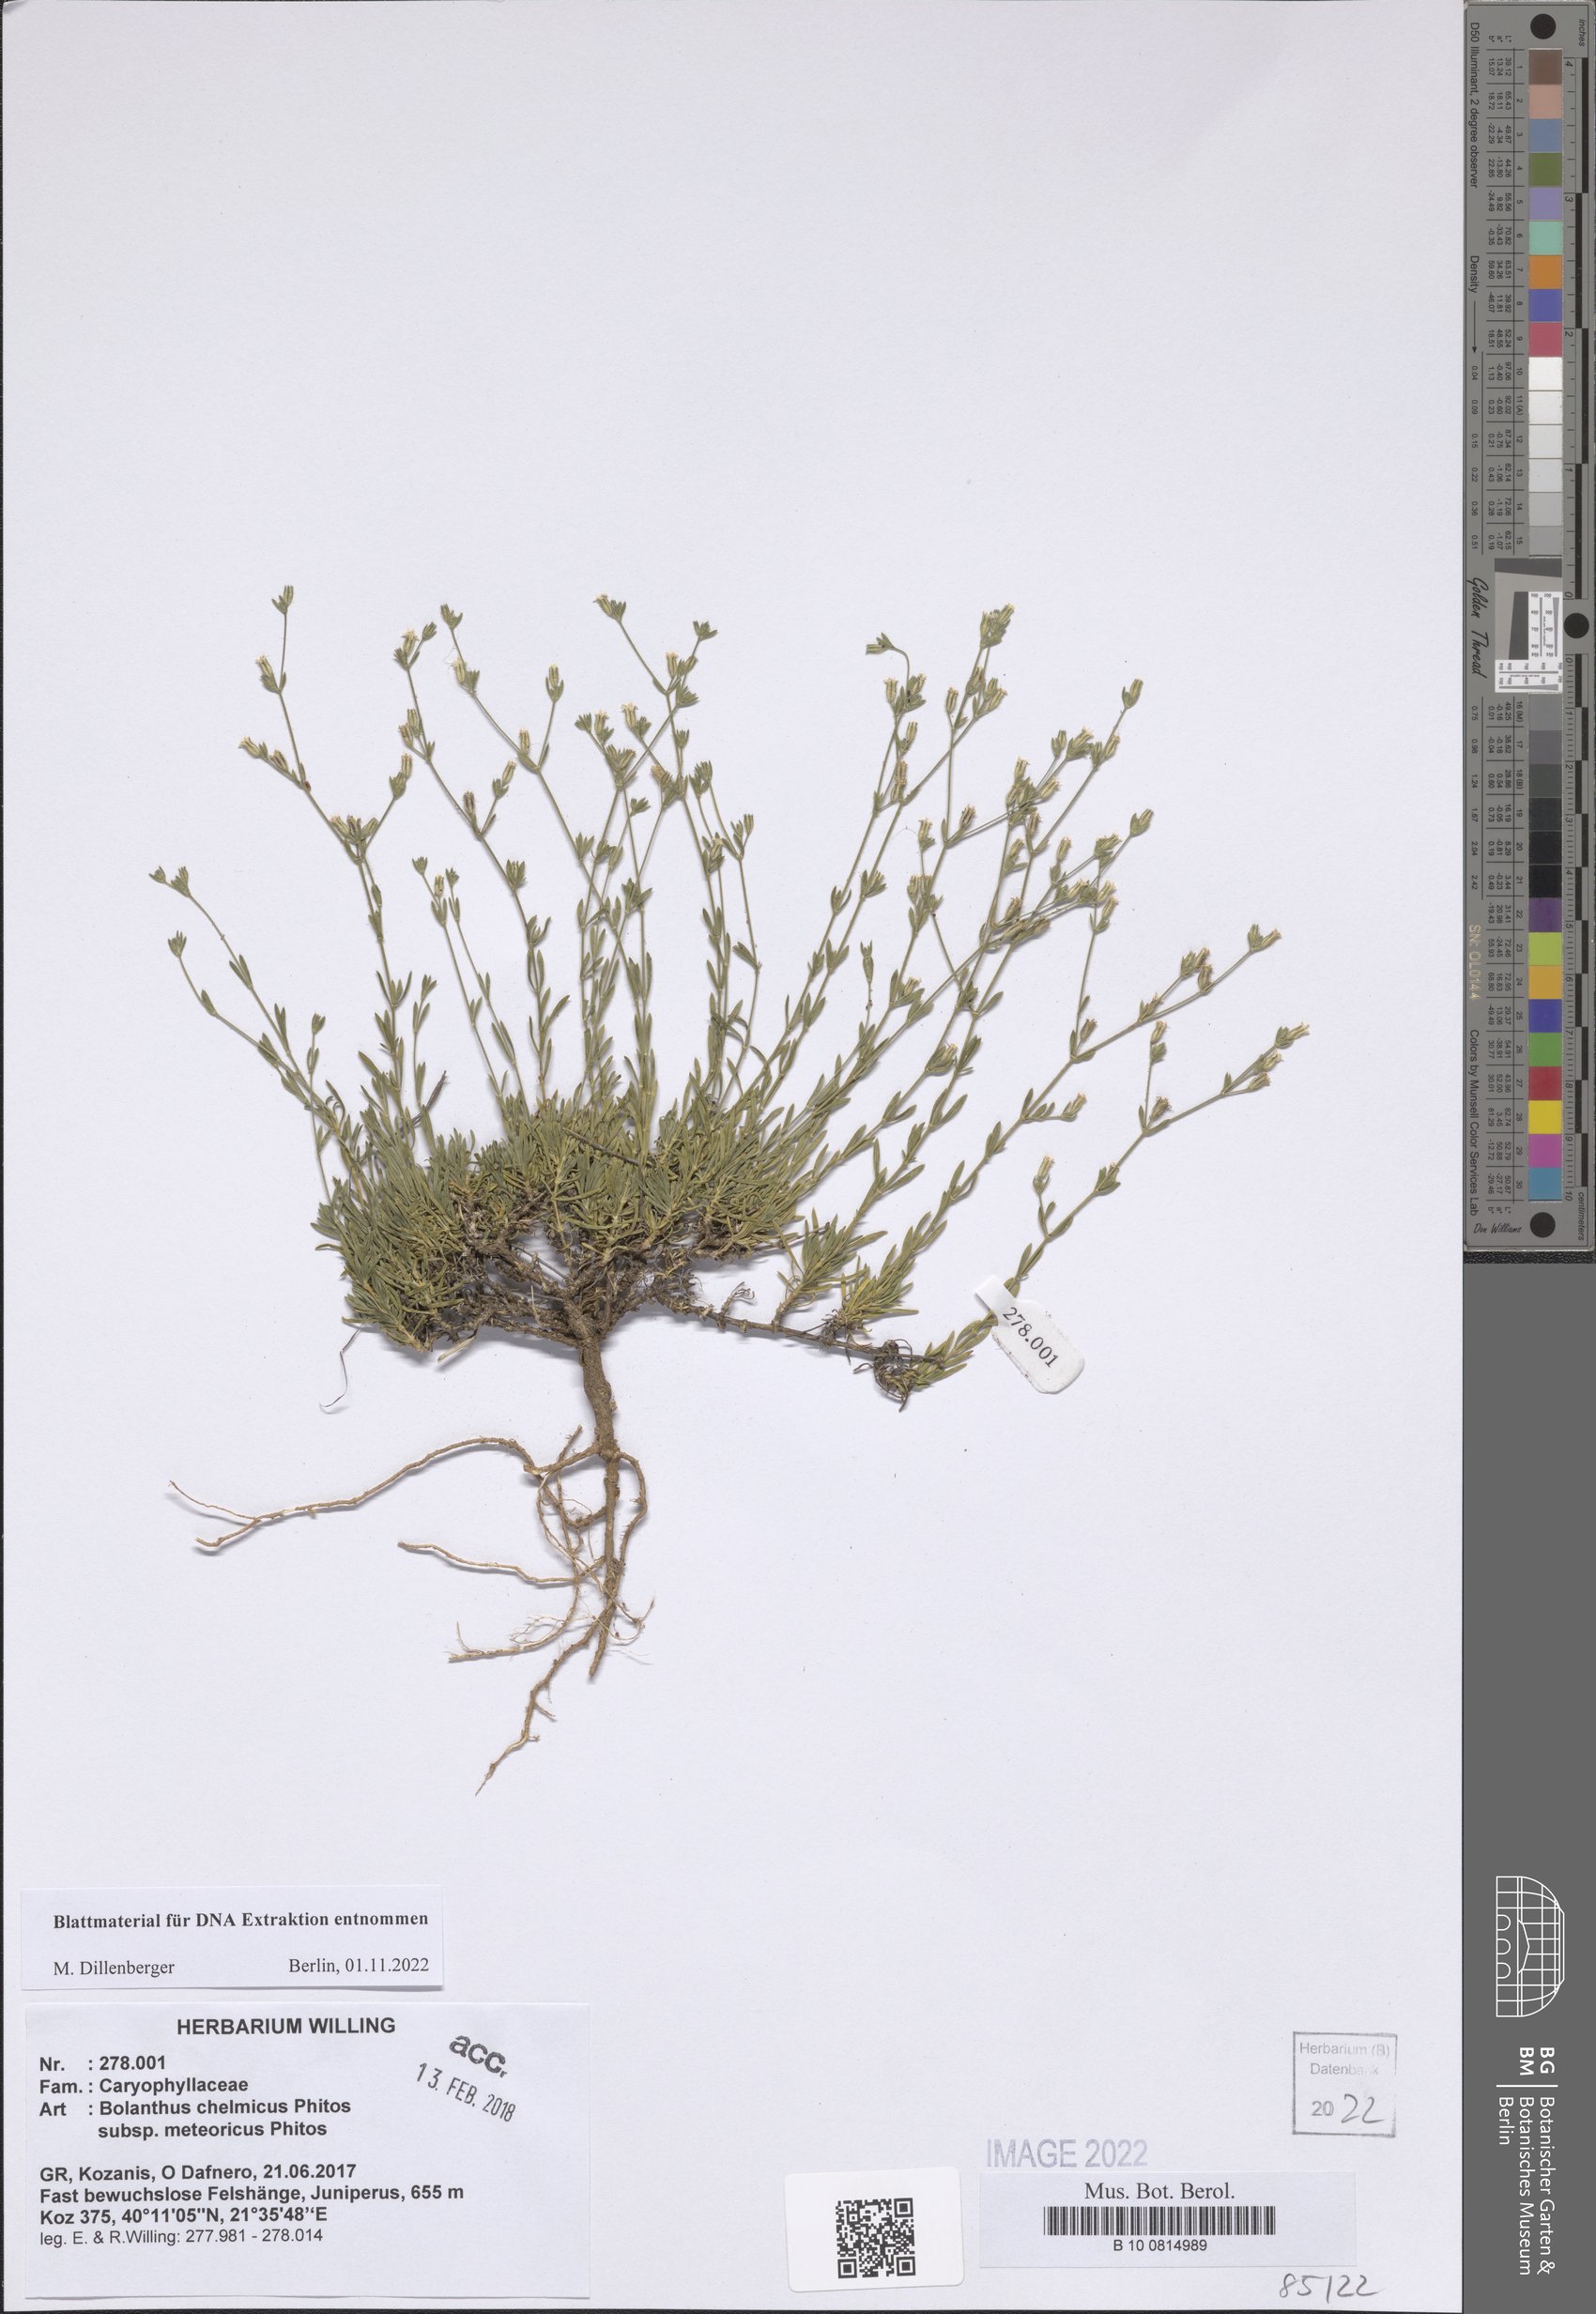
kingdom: Plantae
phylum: Tracheophyta
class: Magnoliopsida
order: Caryophyllales
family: Caryophyllaceae
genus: Graecobolanthus
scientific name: Graecobolanthus chelmicus
